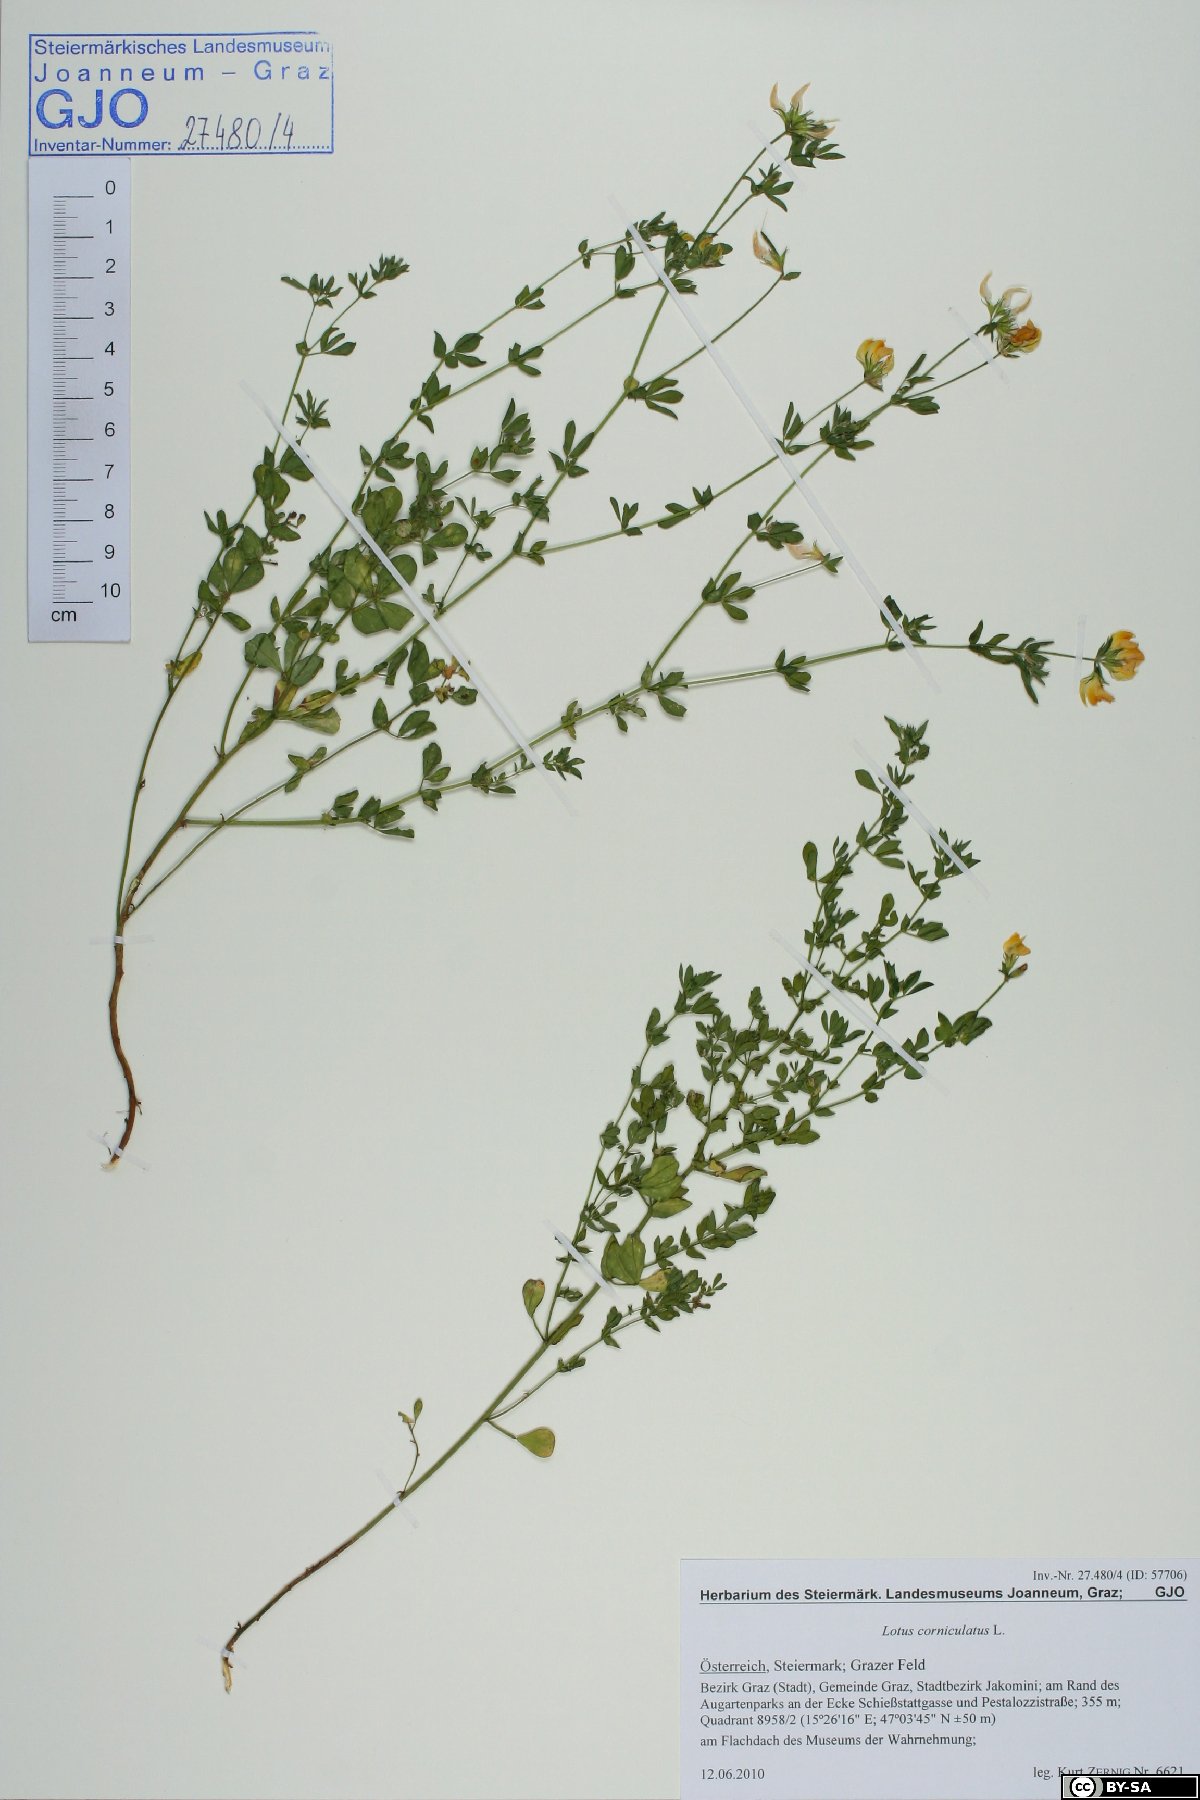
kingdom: Plantae
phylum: Tracheophyta
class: Magnoliopsida
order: Fabales
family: Fabaceae
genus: Lotus
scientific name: Lotus tenuis
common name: Narrow-leaved bird's-foot-trefoil
